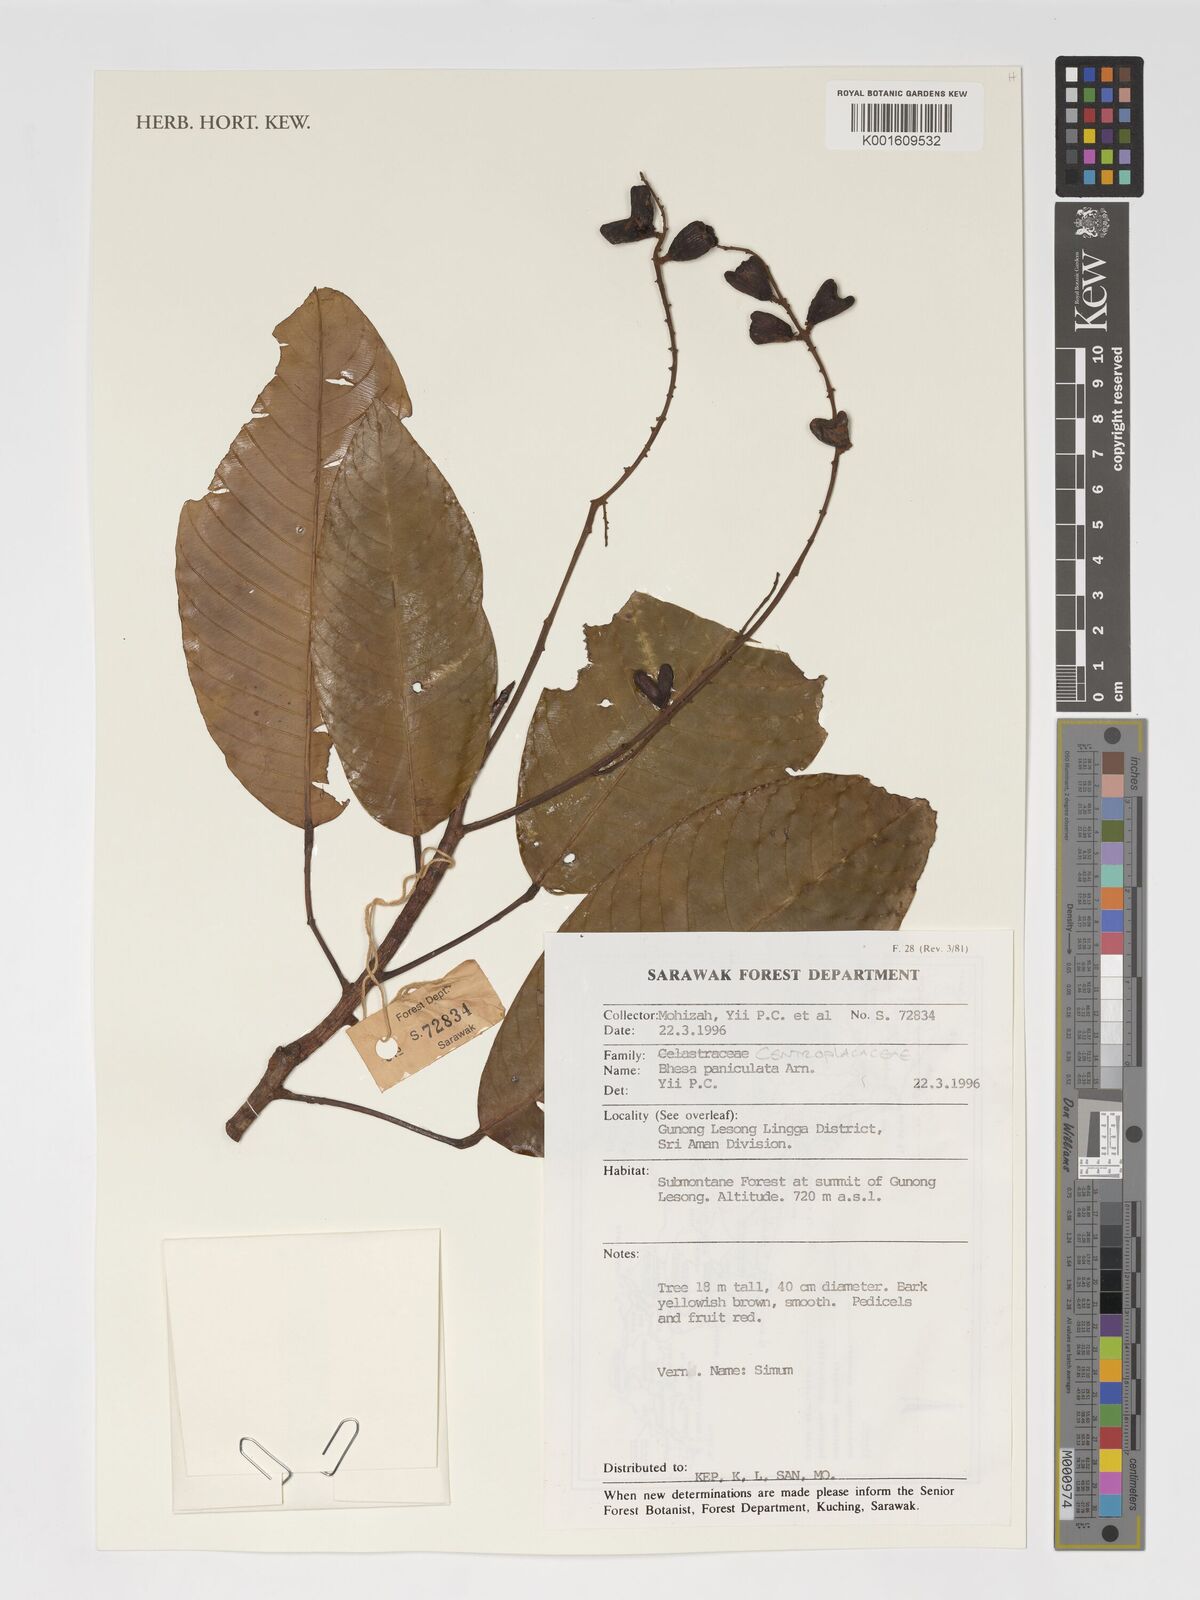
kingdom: Plantae
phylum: Tracheophyta
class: Magnoliopsida
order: Malpighiales
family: Centroplacaceae
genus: Bhesa
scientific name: Bhesa paniculata
